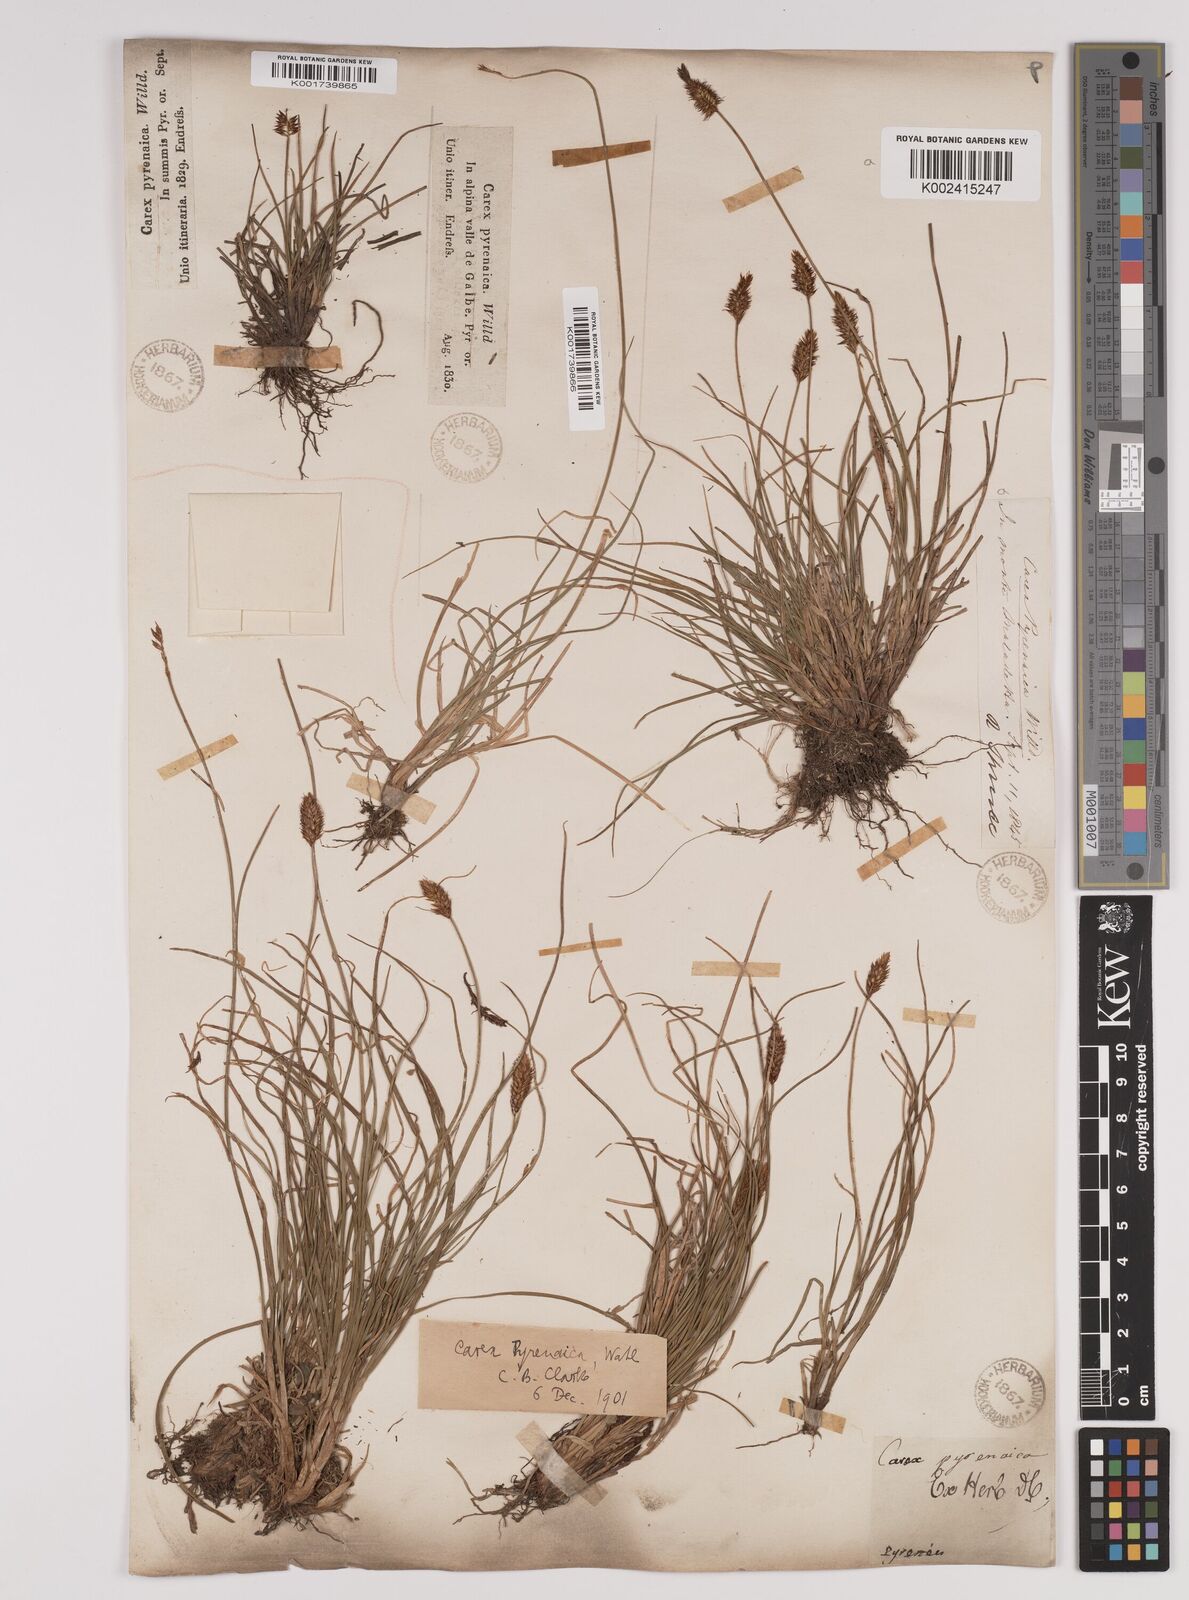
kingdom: Plantae
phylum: Tracheophyta
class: Liliopsida
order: Poales
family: Cyperaceae
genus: Carex
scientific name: Carex acicularis
